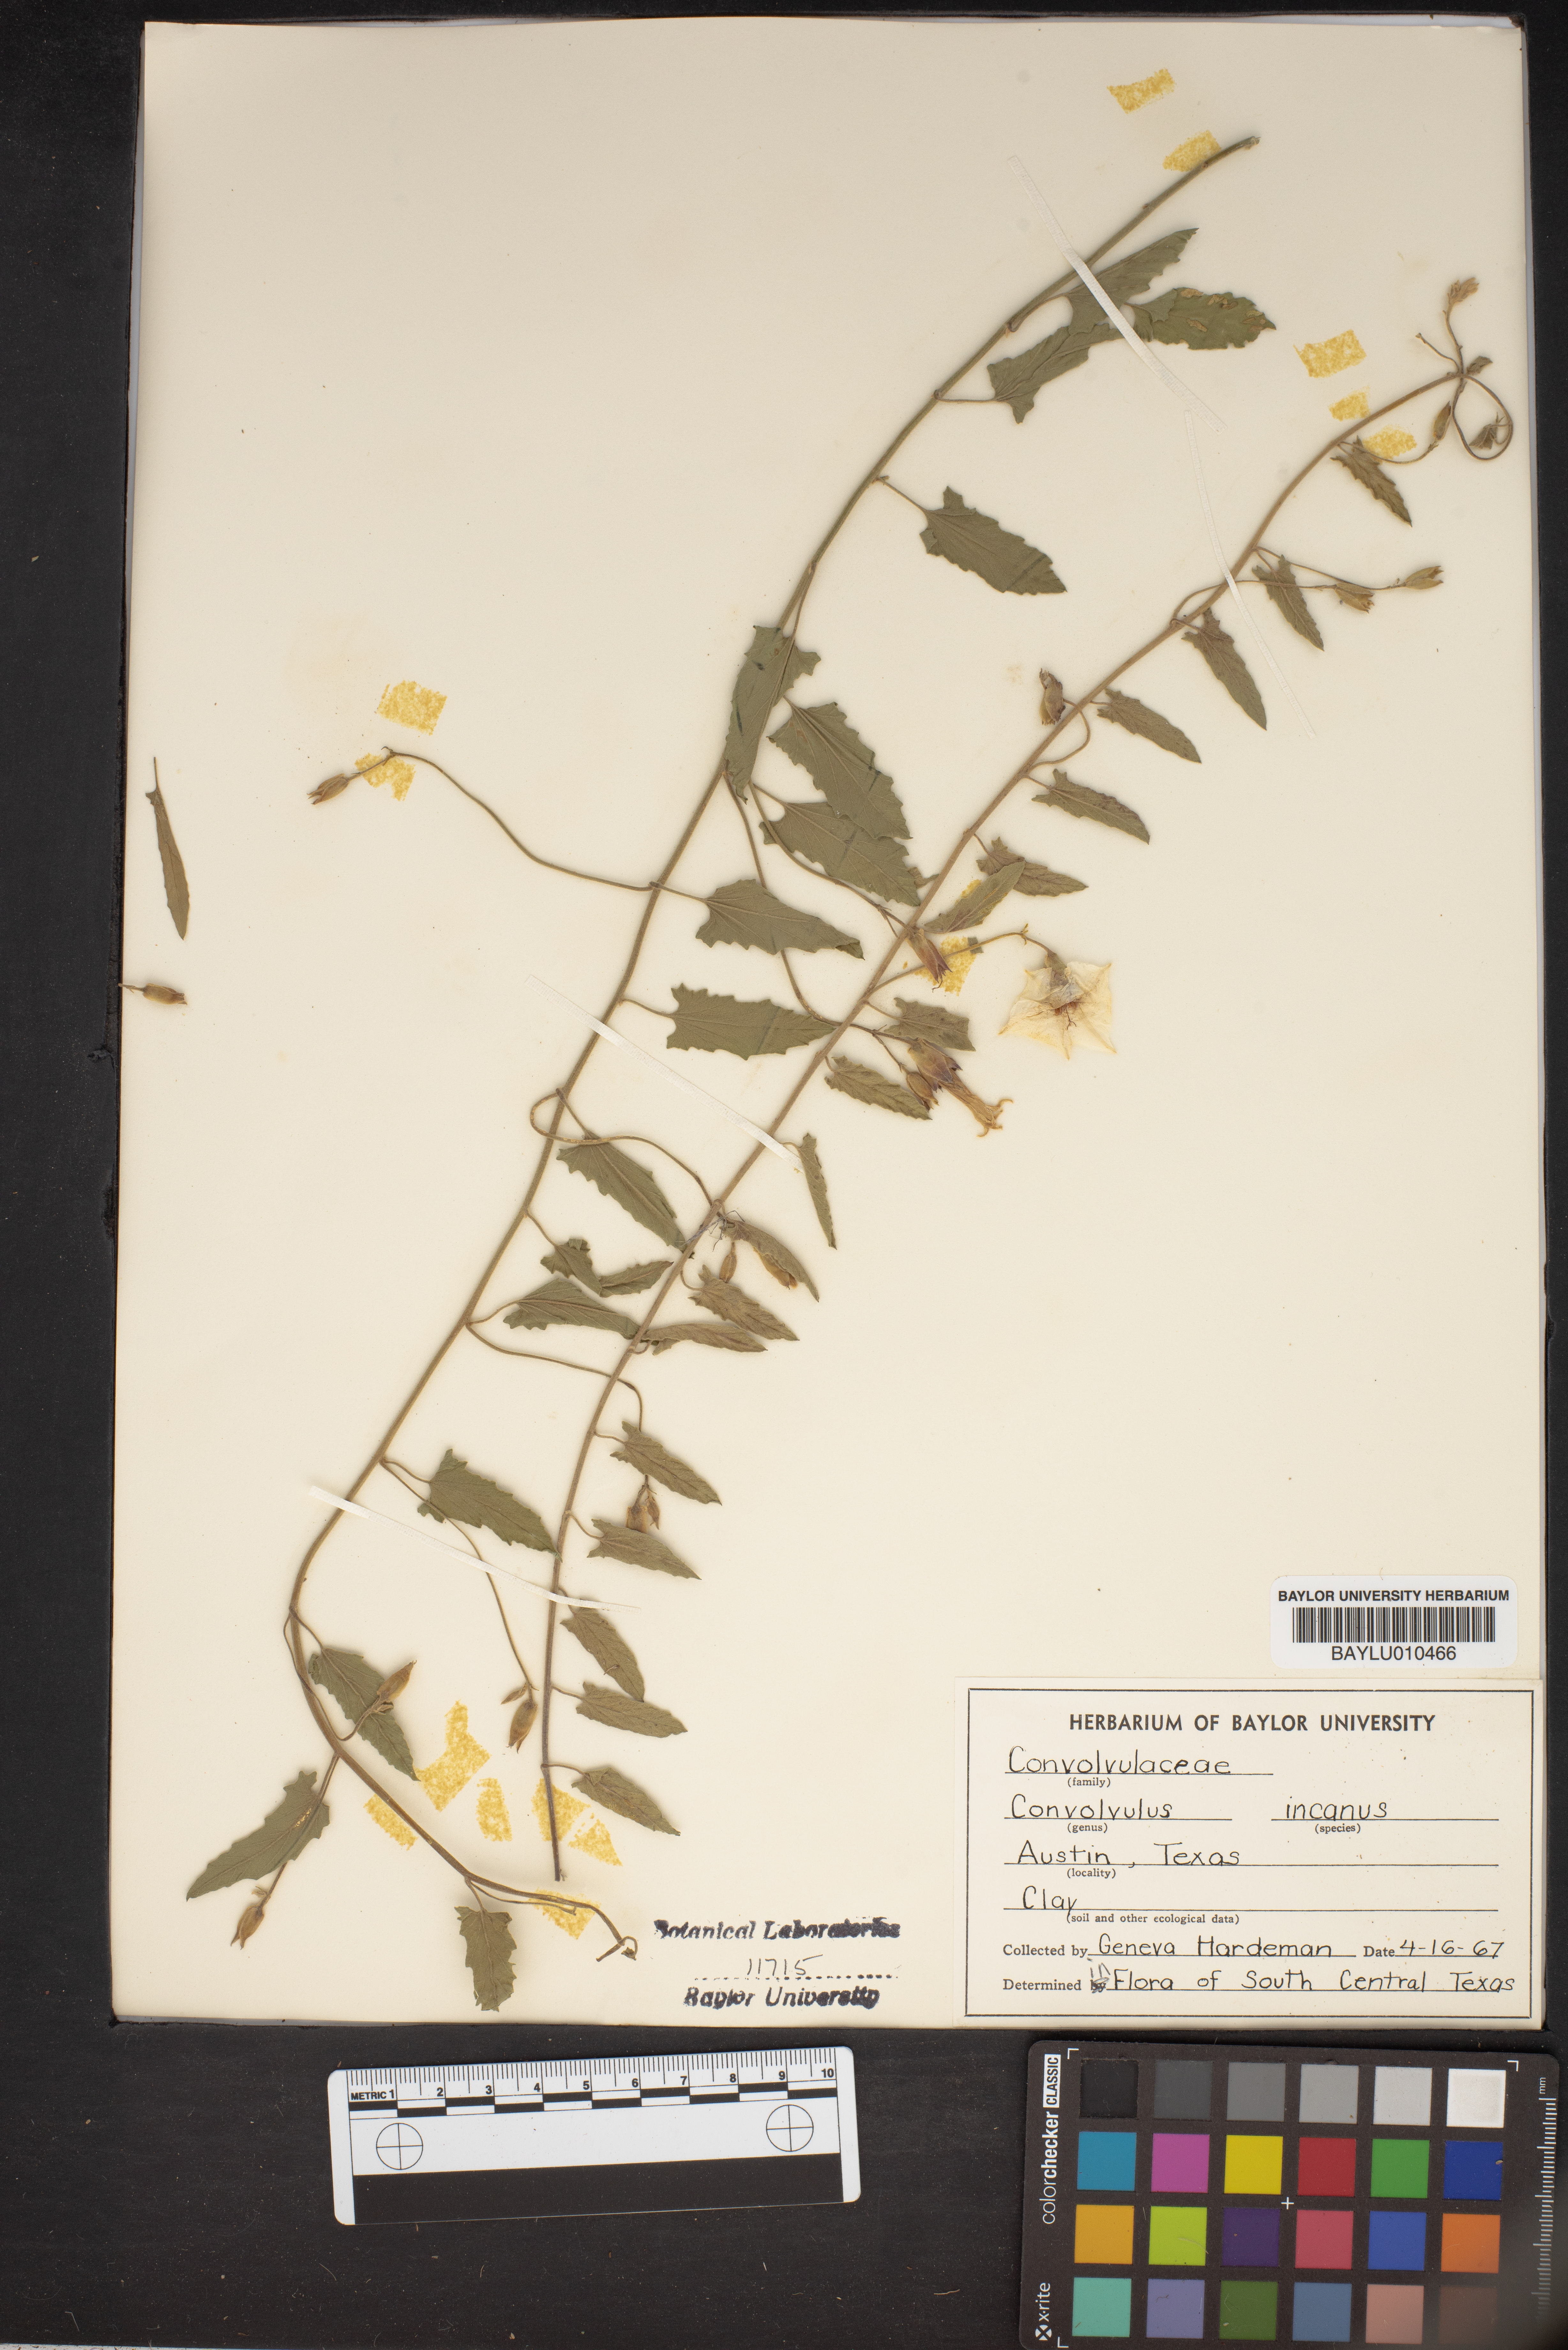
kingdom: Plantae
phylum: Tracheophyta
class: Magnoliopsida
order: Solanales
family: Convolvulaceae
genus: Convolvulus
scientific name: Convolvulus hermanniae
